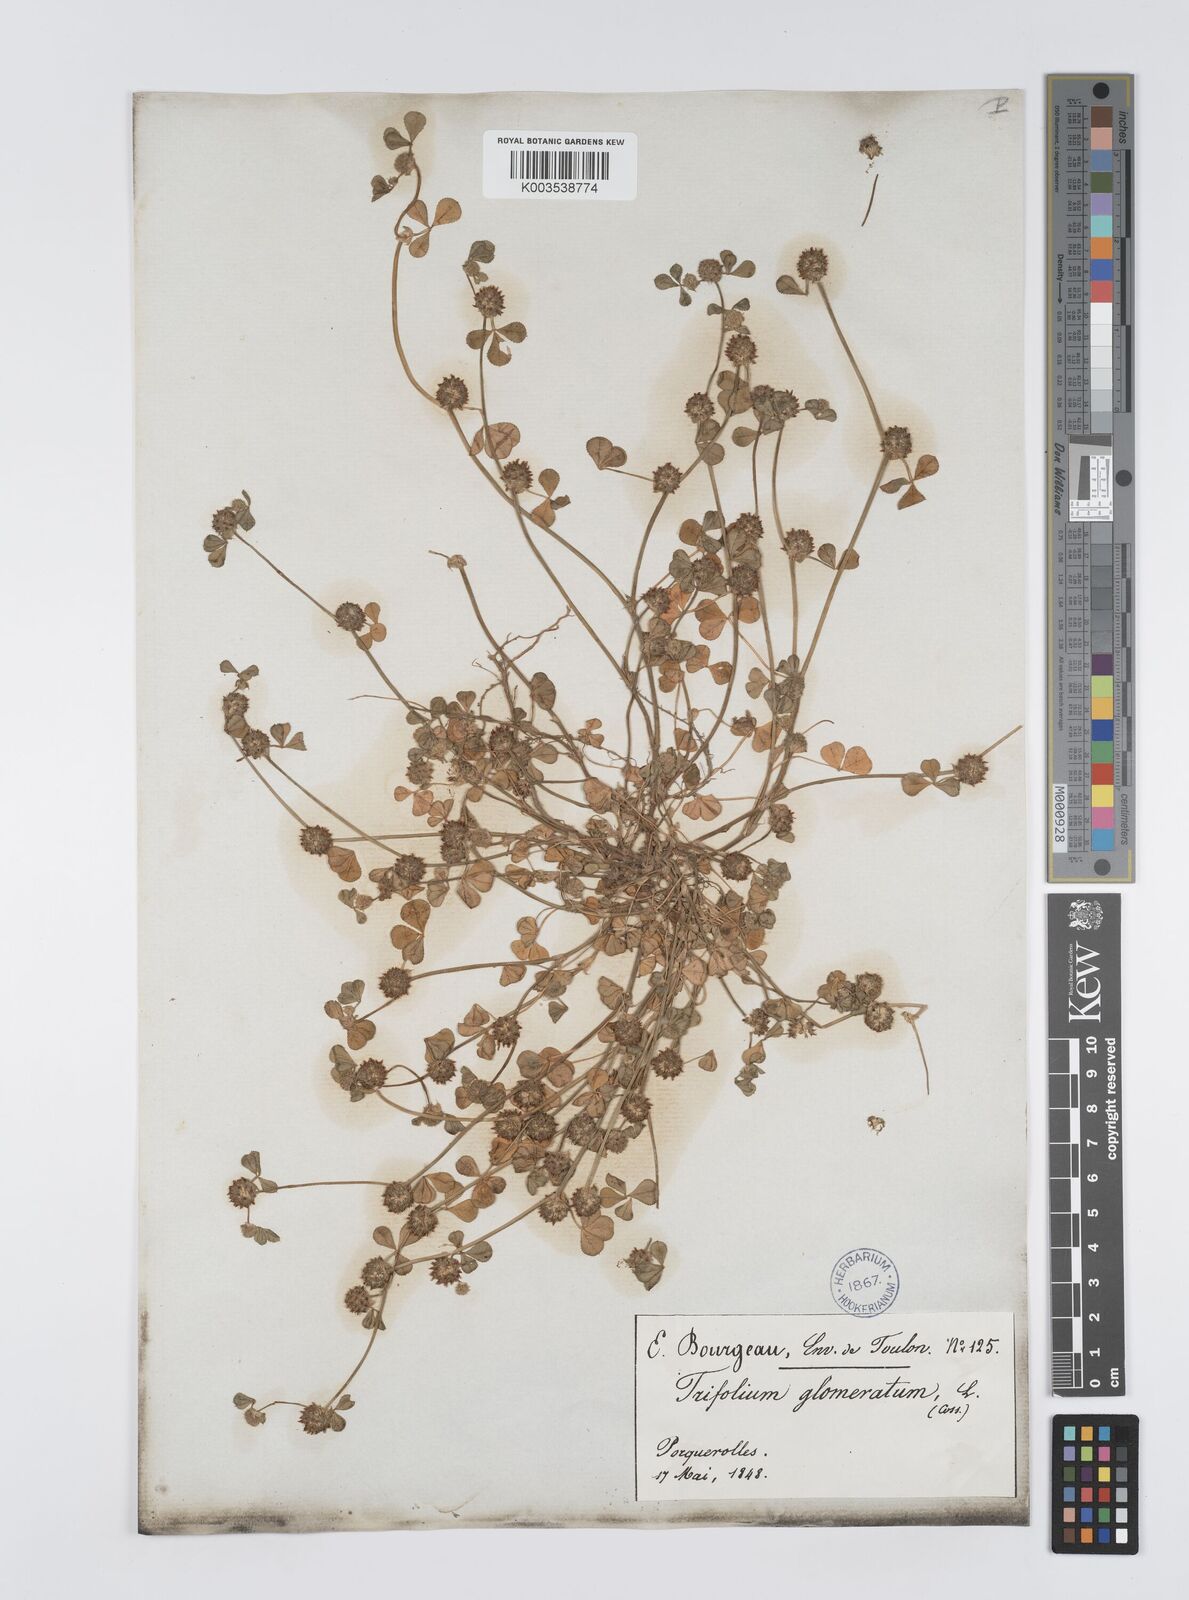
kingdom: Plantae
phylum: Tracheophyta
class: Magnoliopsida
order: Fabales
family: Fabaceae
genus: Trifolium
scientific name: Trifolium glomeratum
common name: Clustered clover
